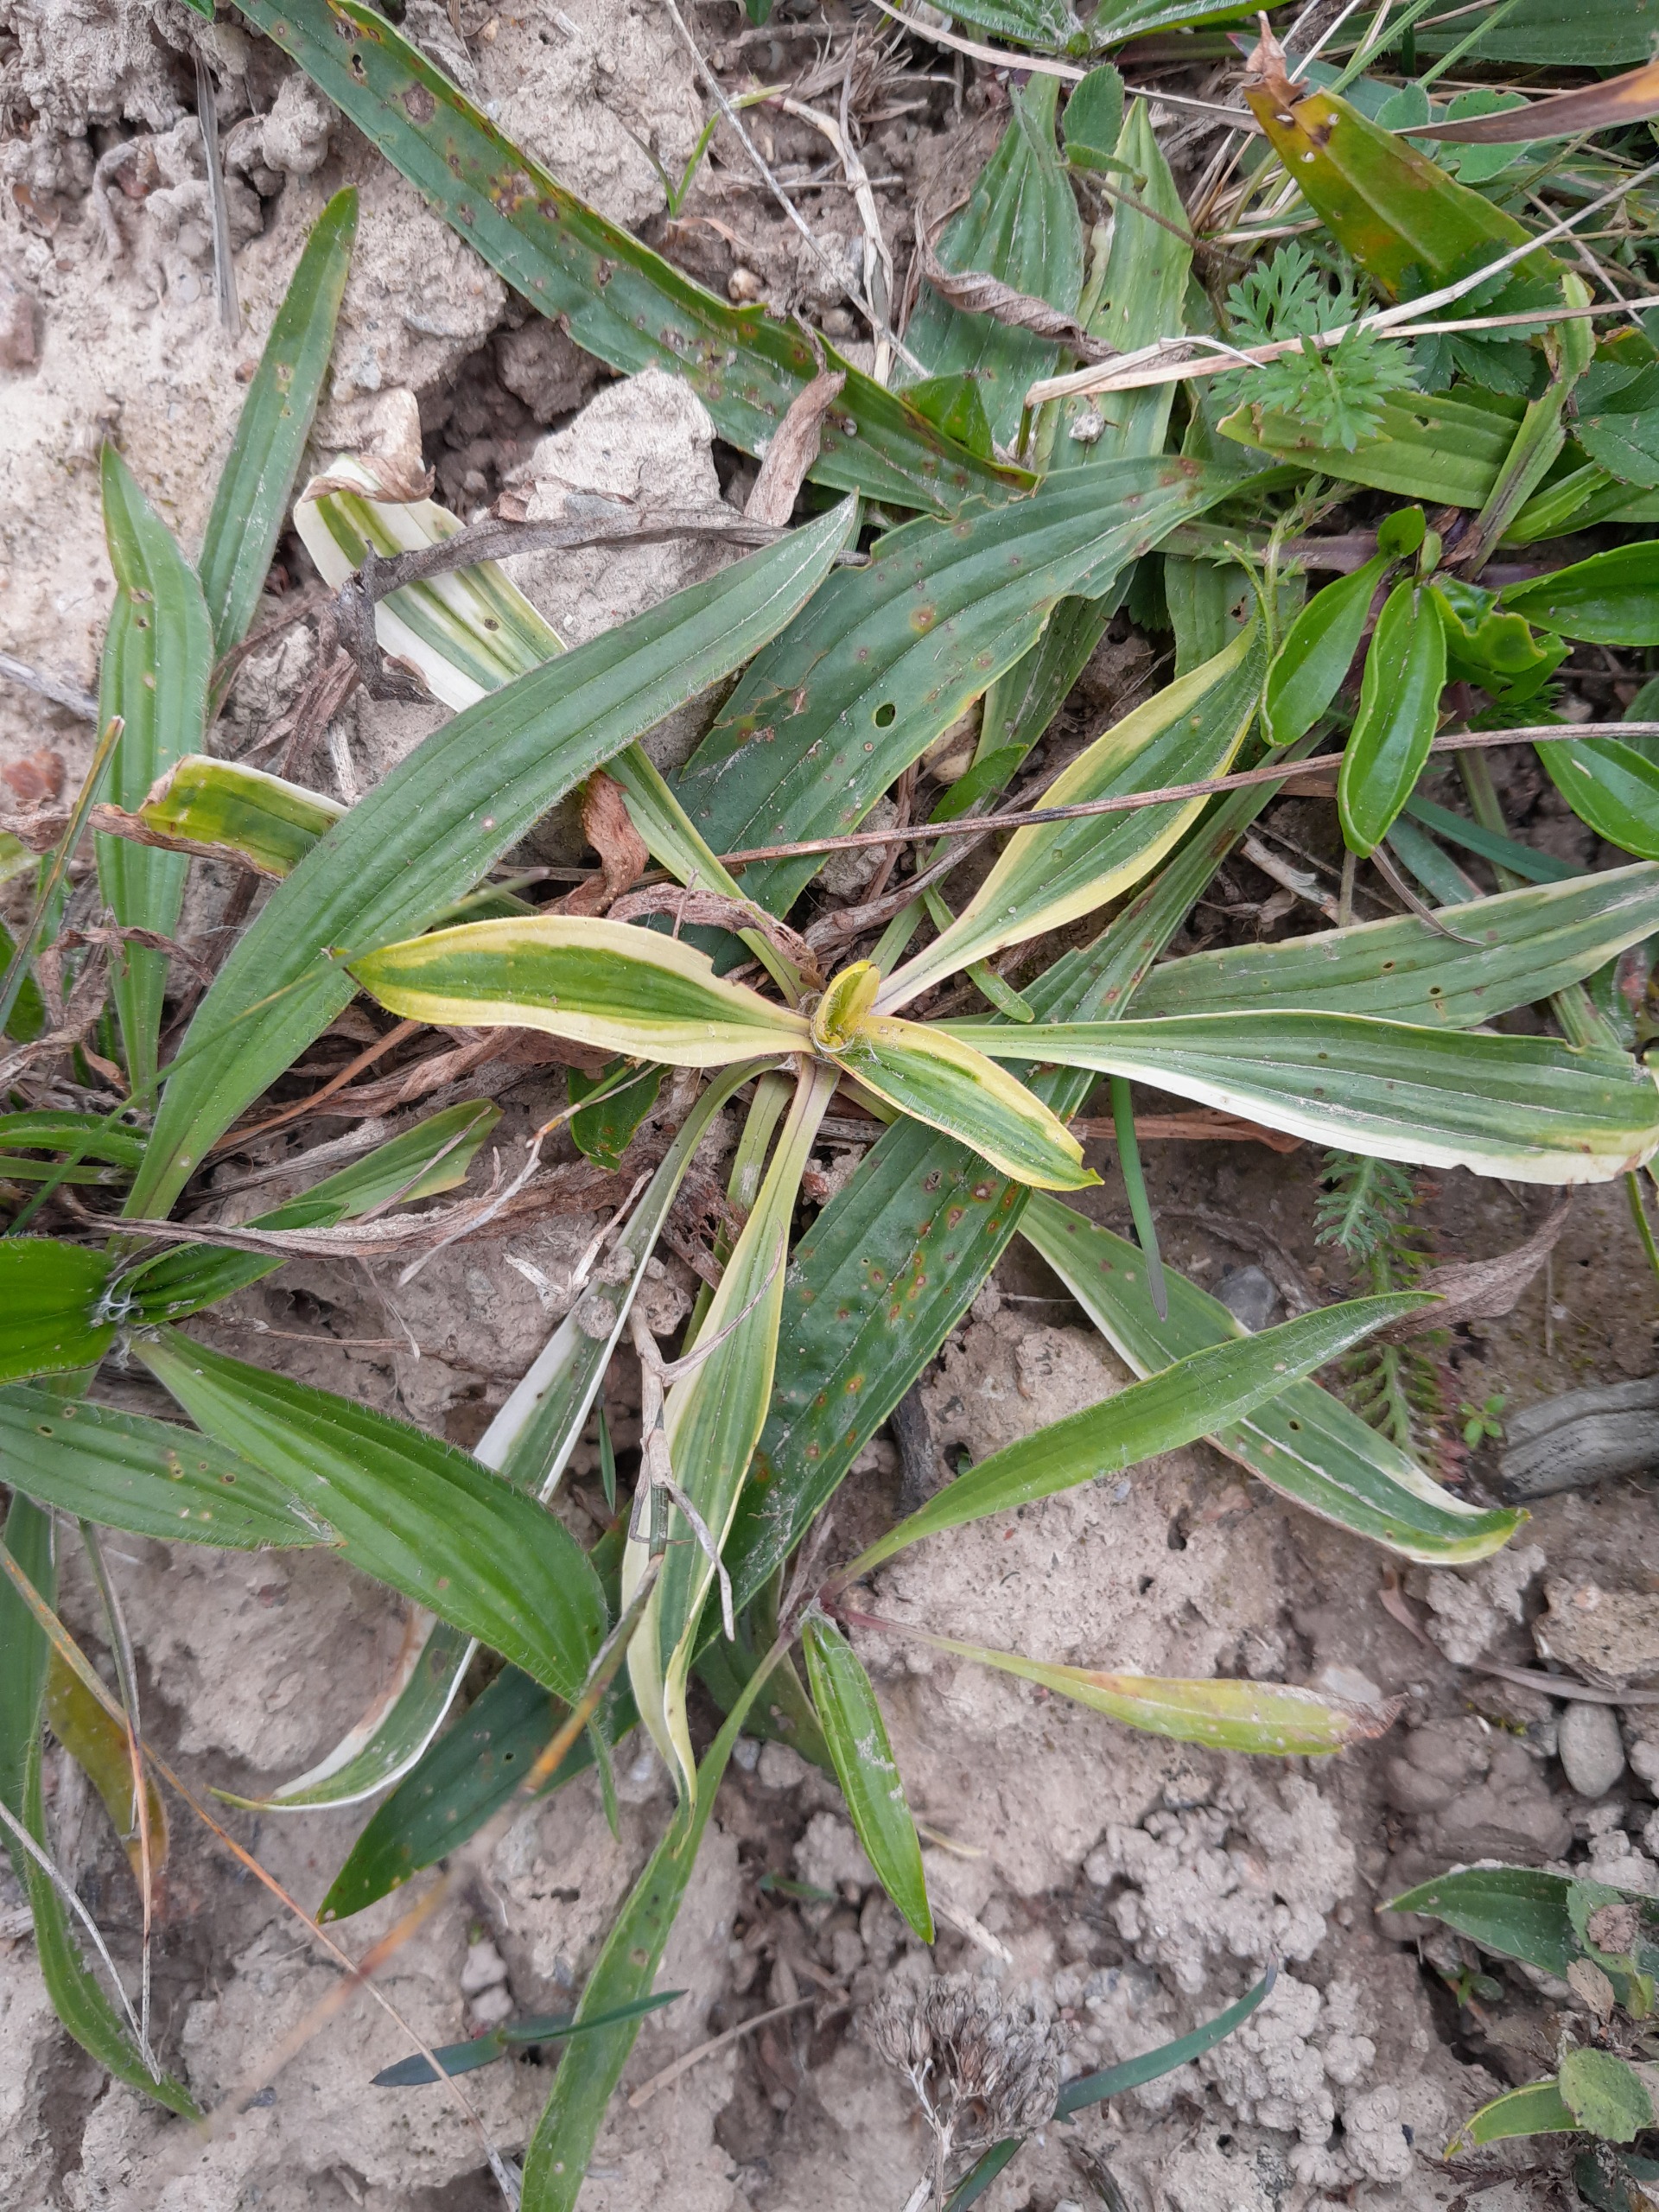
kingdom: Plantae
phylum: Tracheophyta
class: Magnoliopsida
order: Lamiales
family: Plantaginaceae
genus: Plantago
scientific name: Plantago lanceolata
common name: Lancet-vejbred
